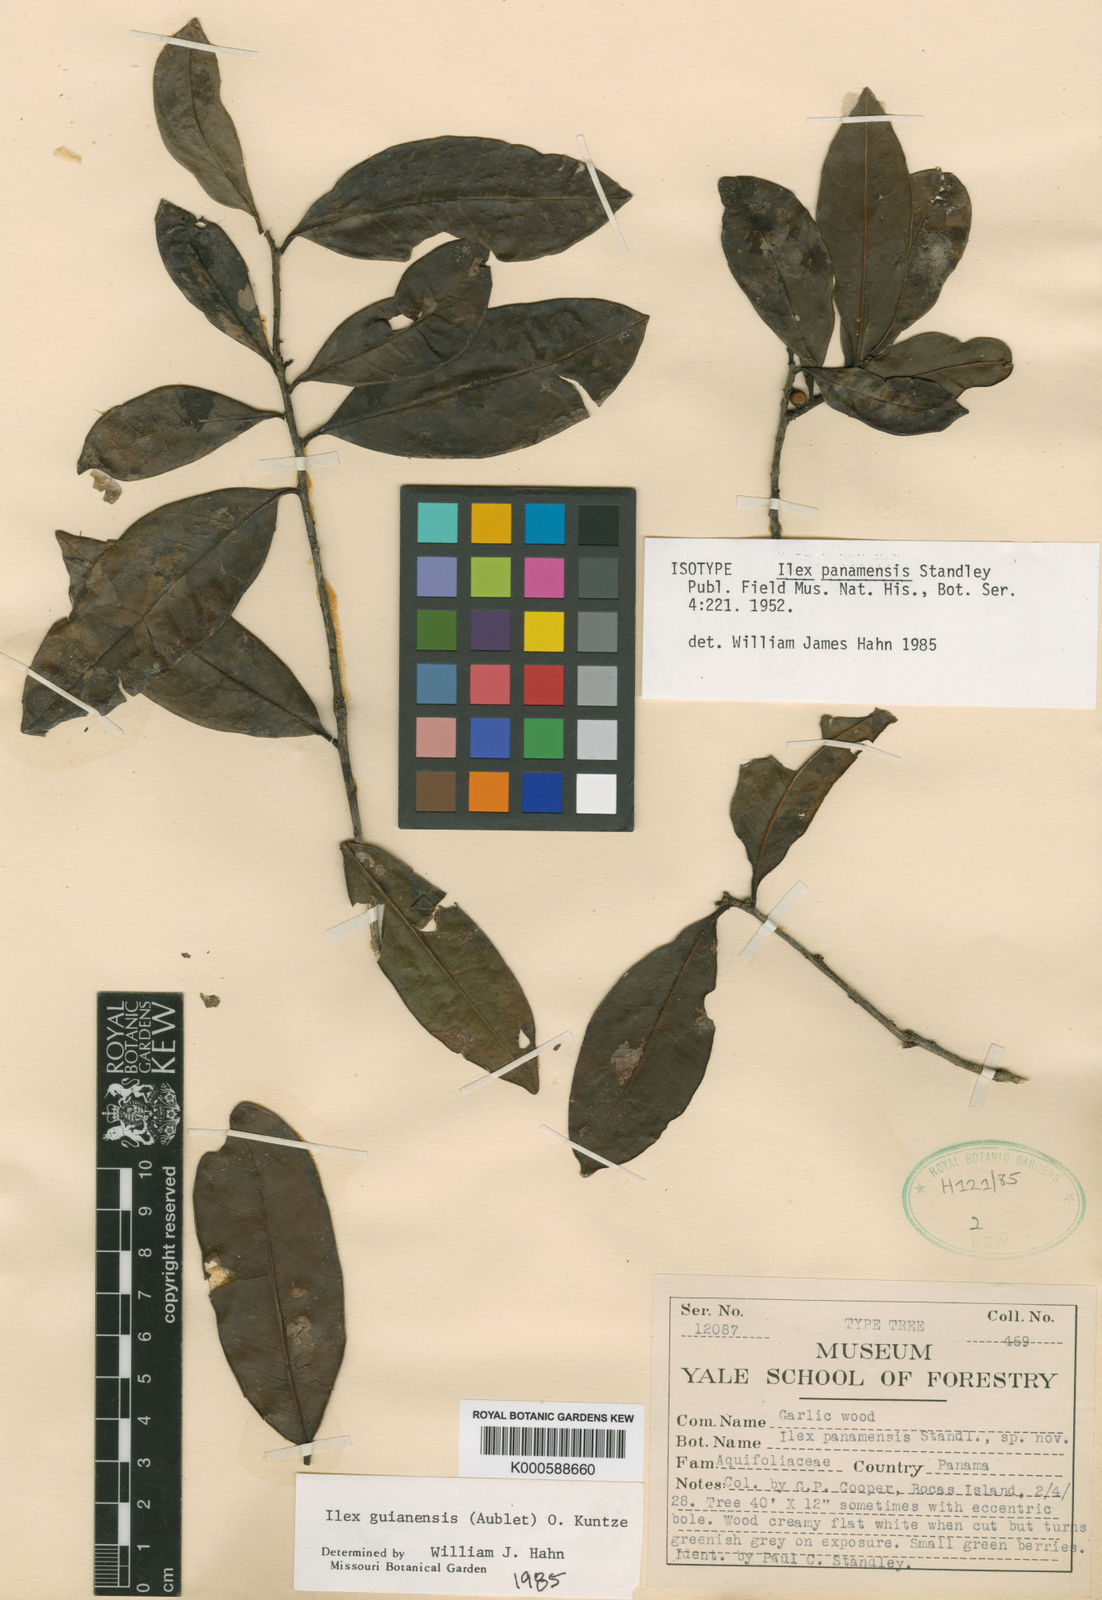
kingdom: Plantae
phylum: Tracheophyta
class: Magnoliopsida
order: Aquifoliales
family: Aquifoliaceae
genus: Ilex
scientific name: Ilex guianensis
